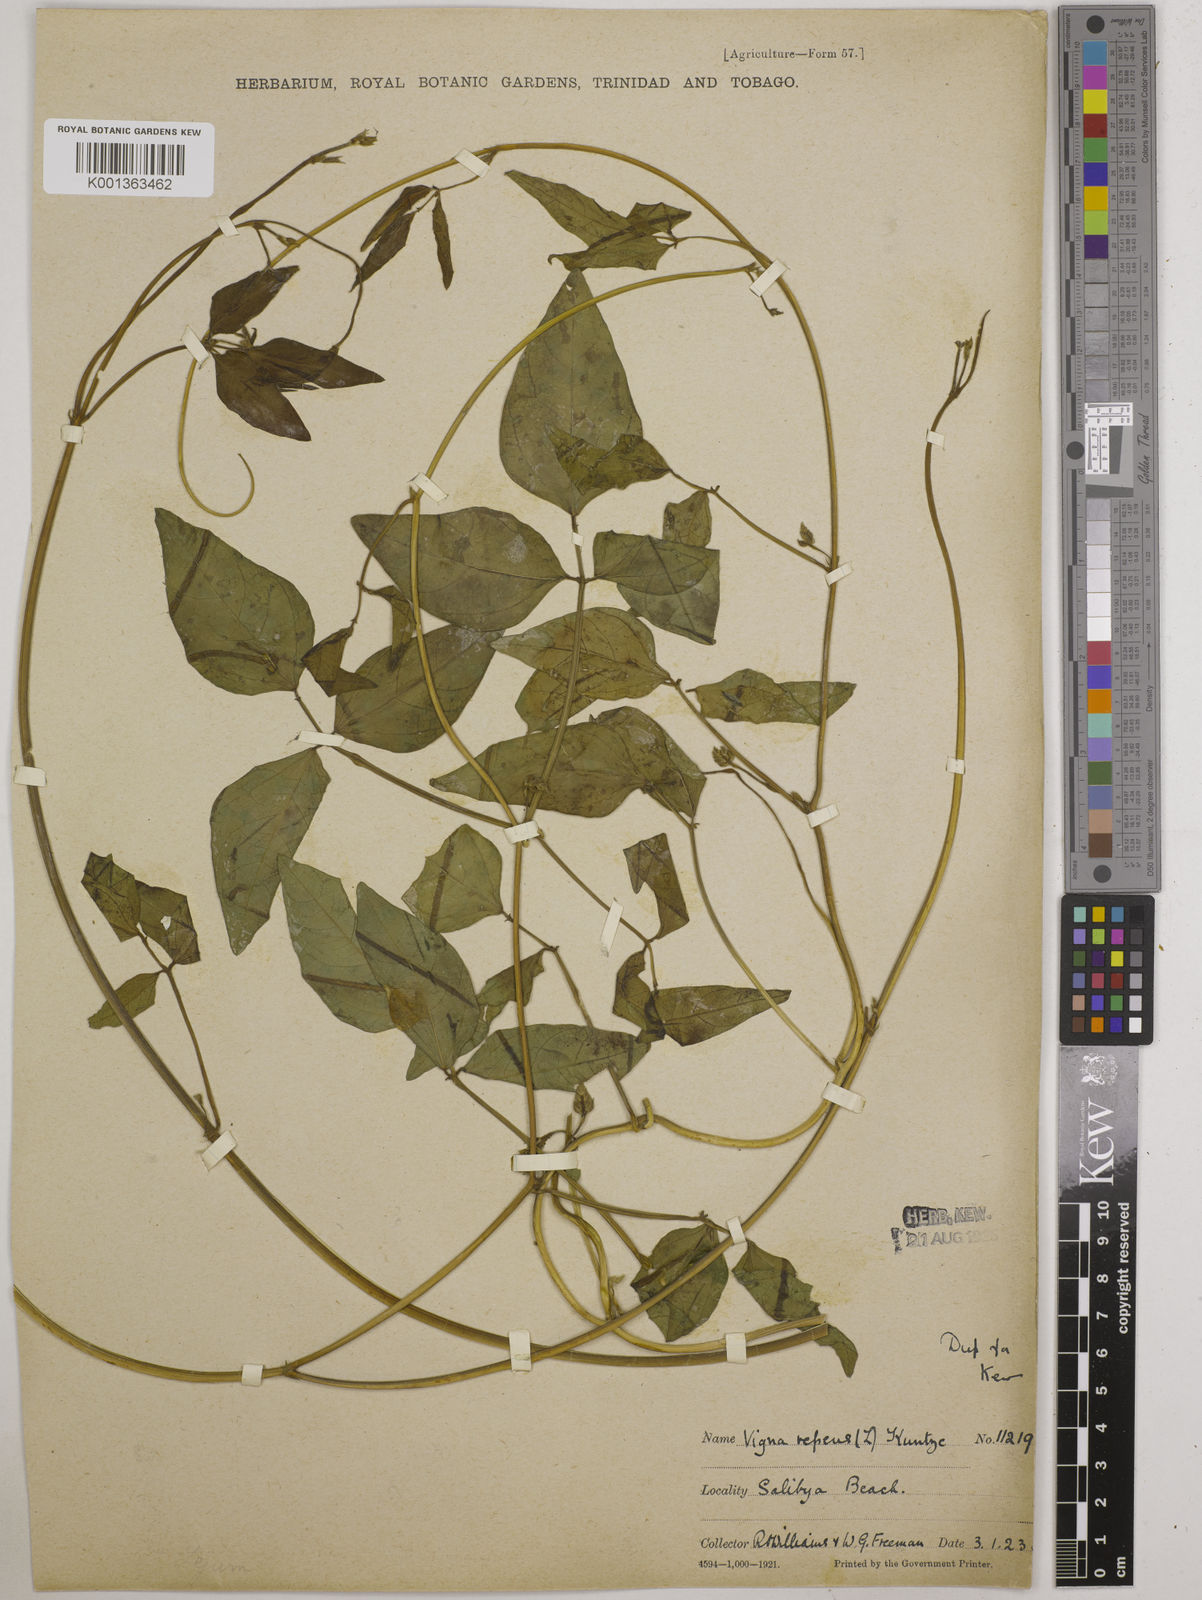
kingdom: Plantae
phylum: Tracheophyta
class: Magnoliopsida
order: Fabales
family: Fabaceae
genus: Vigna
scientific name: Vigna luteola
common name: Hairypod cowpea
